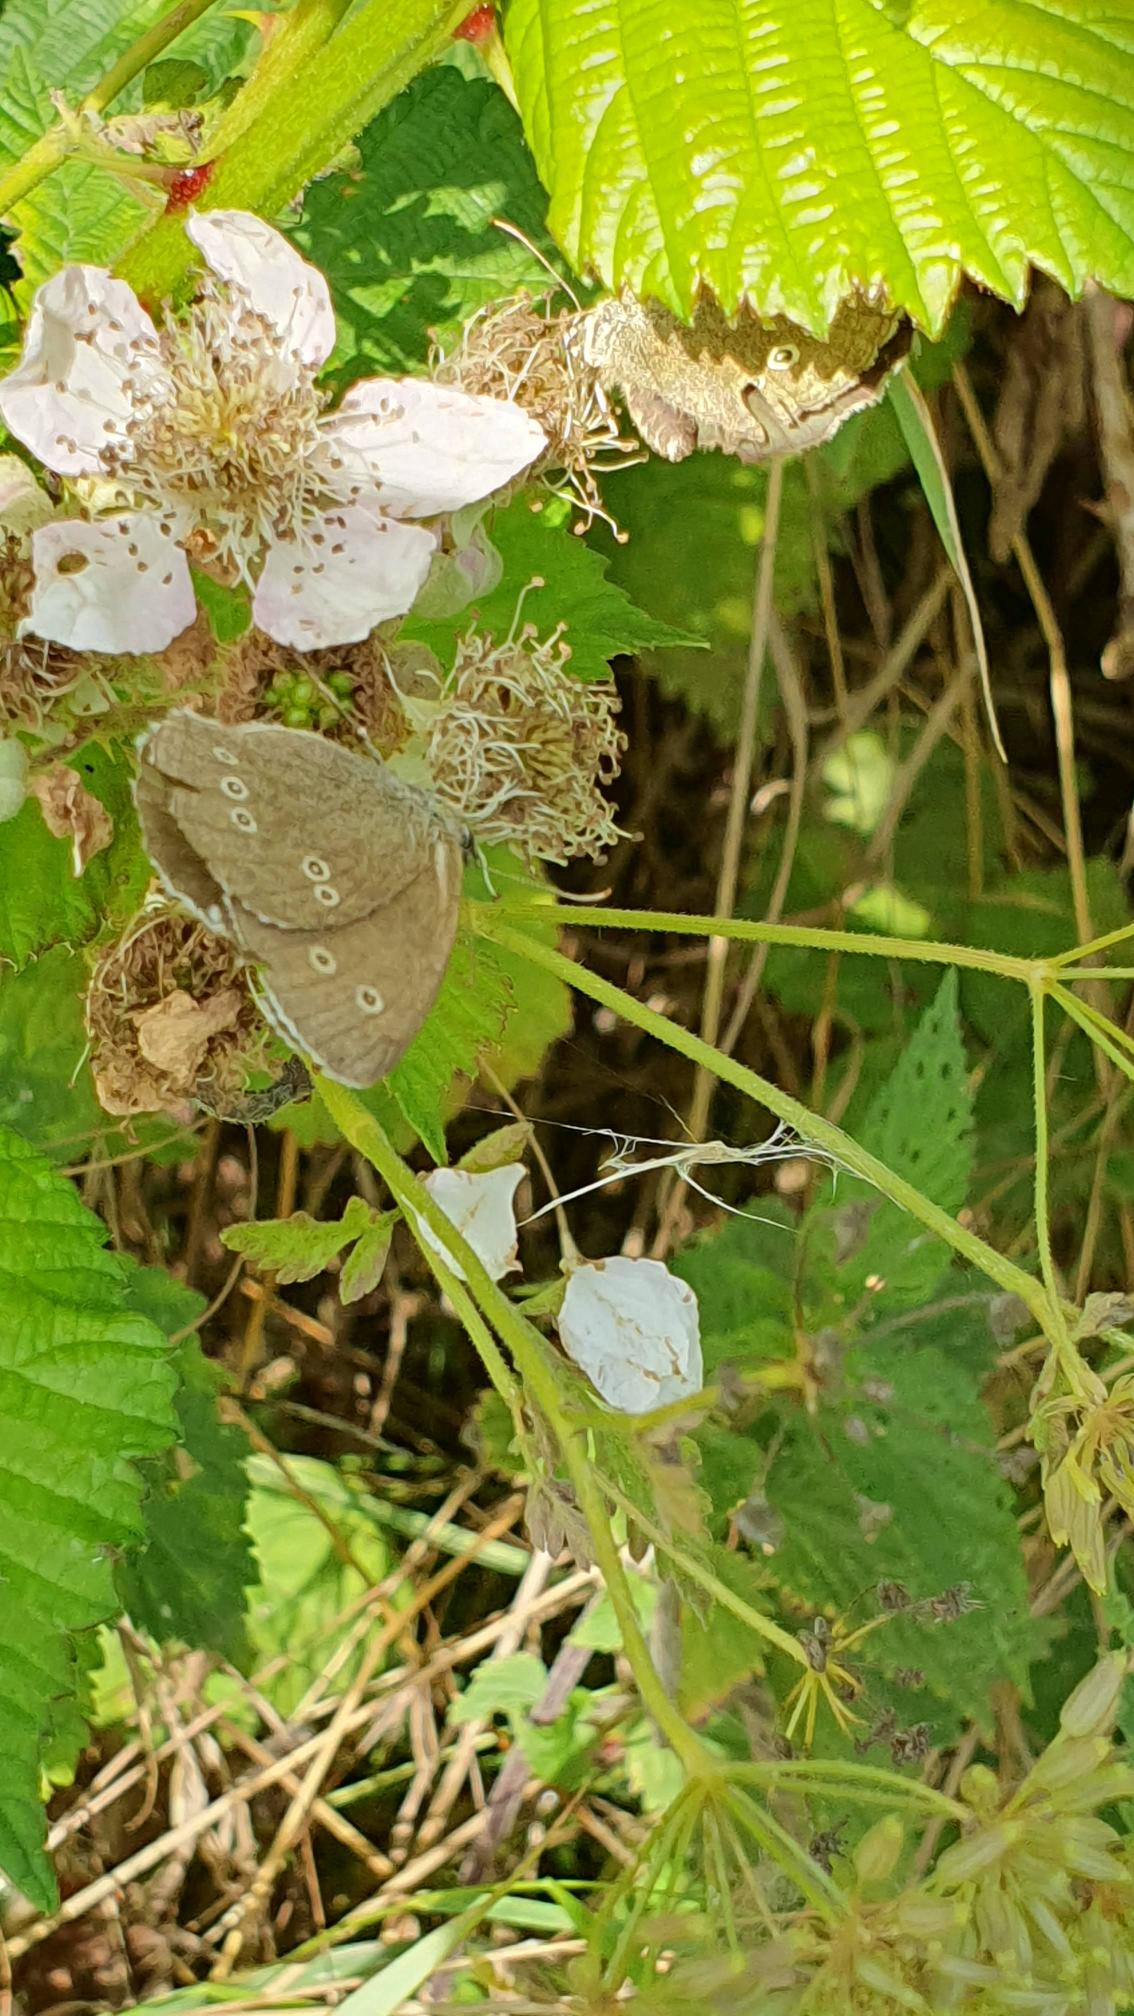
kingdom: Animalia
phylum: Arthropoda
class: Insecta
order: Lepidoptera
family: Nymphalidae
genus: Aphantopus
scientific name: Aphantopus hyperantus
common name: Engrandøje
